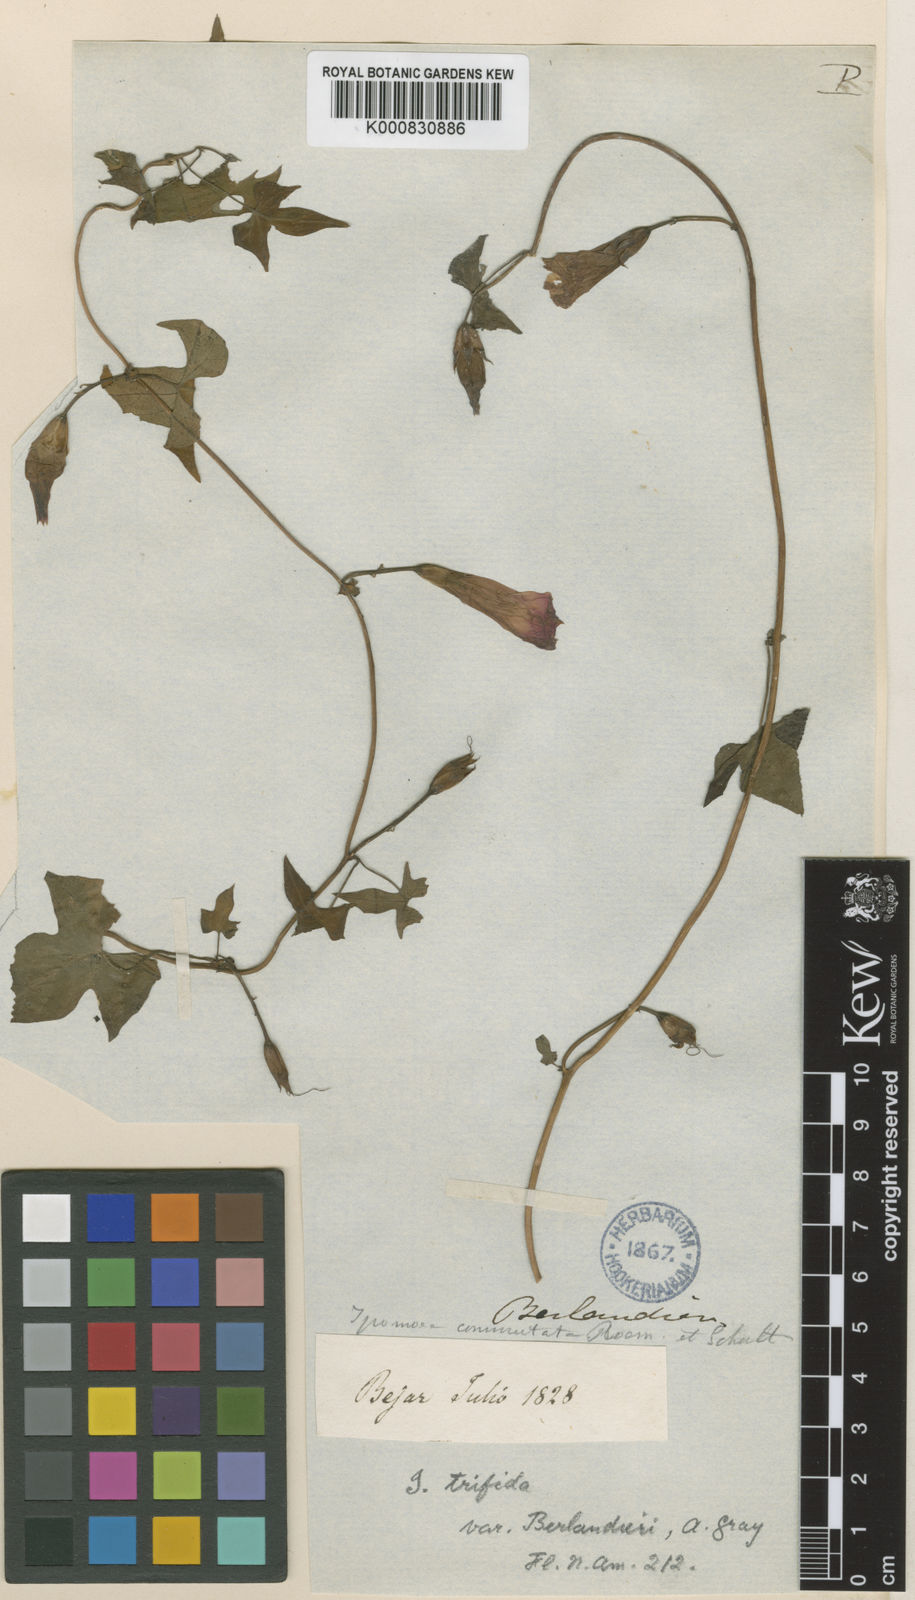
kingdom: Plantae
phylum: Tracheophyta
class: Magnoliopsida
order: Solanales
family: Convolvulaceae
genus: Ipomoea
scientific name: Ipomoea cordatotriloba
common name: Cotton morning glory
